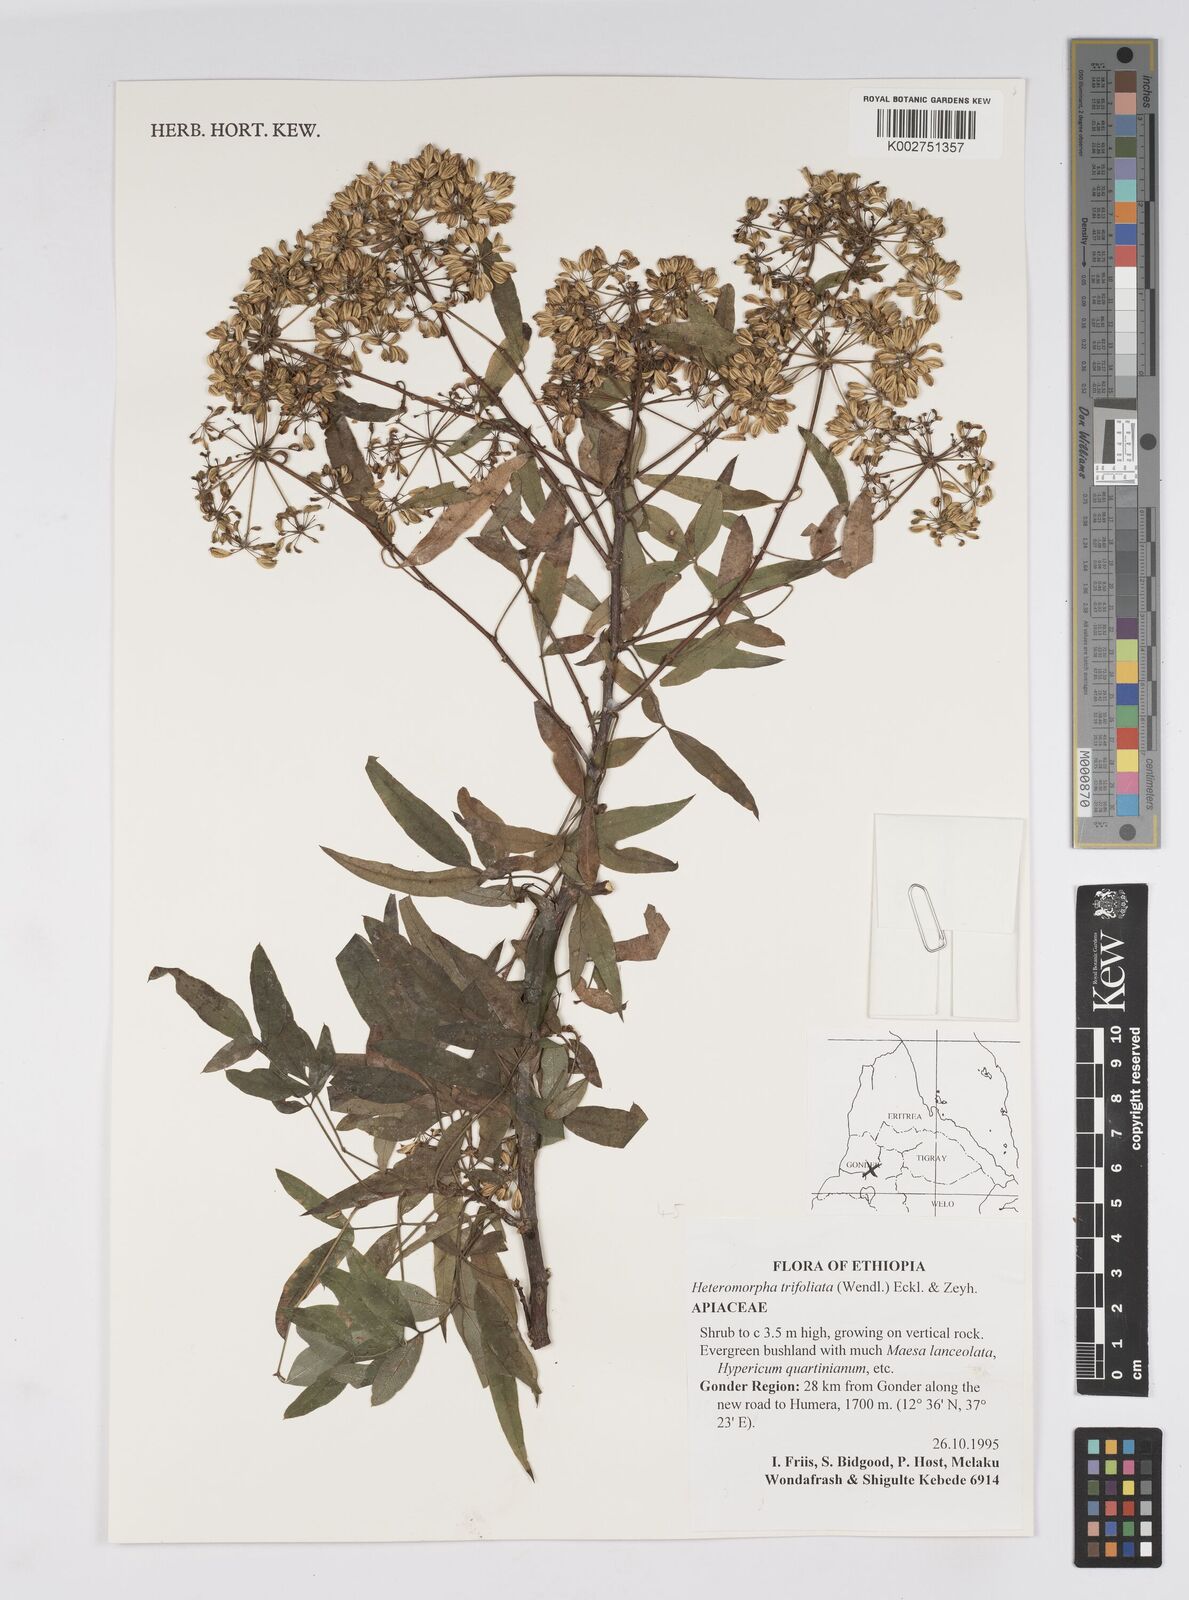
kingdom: Plantae
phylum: Tracheophyta
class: Magnoliopsida
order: Apiales
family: Apiaceae
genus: Heteromorpha
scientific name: Heteromorpha
